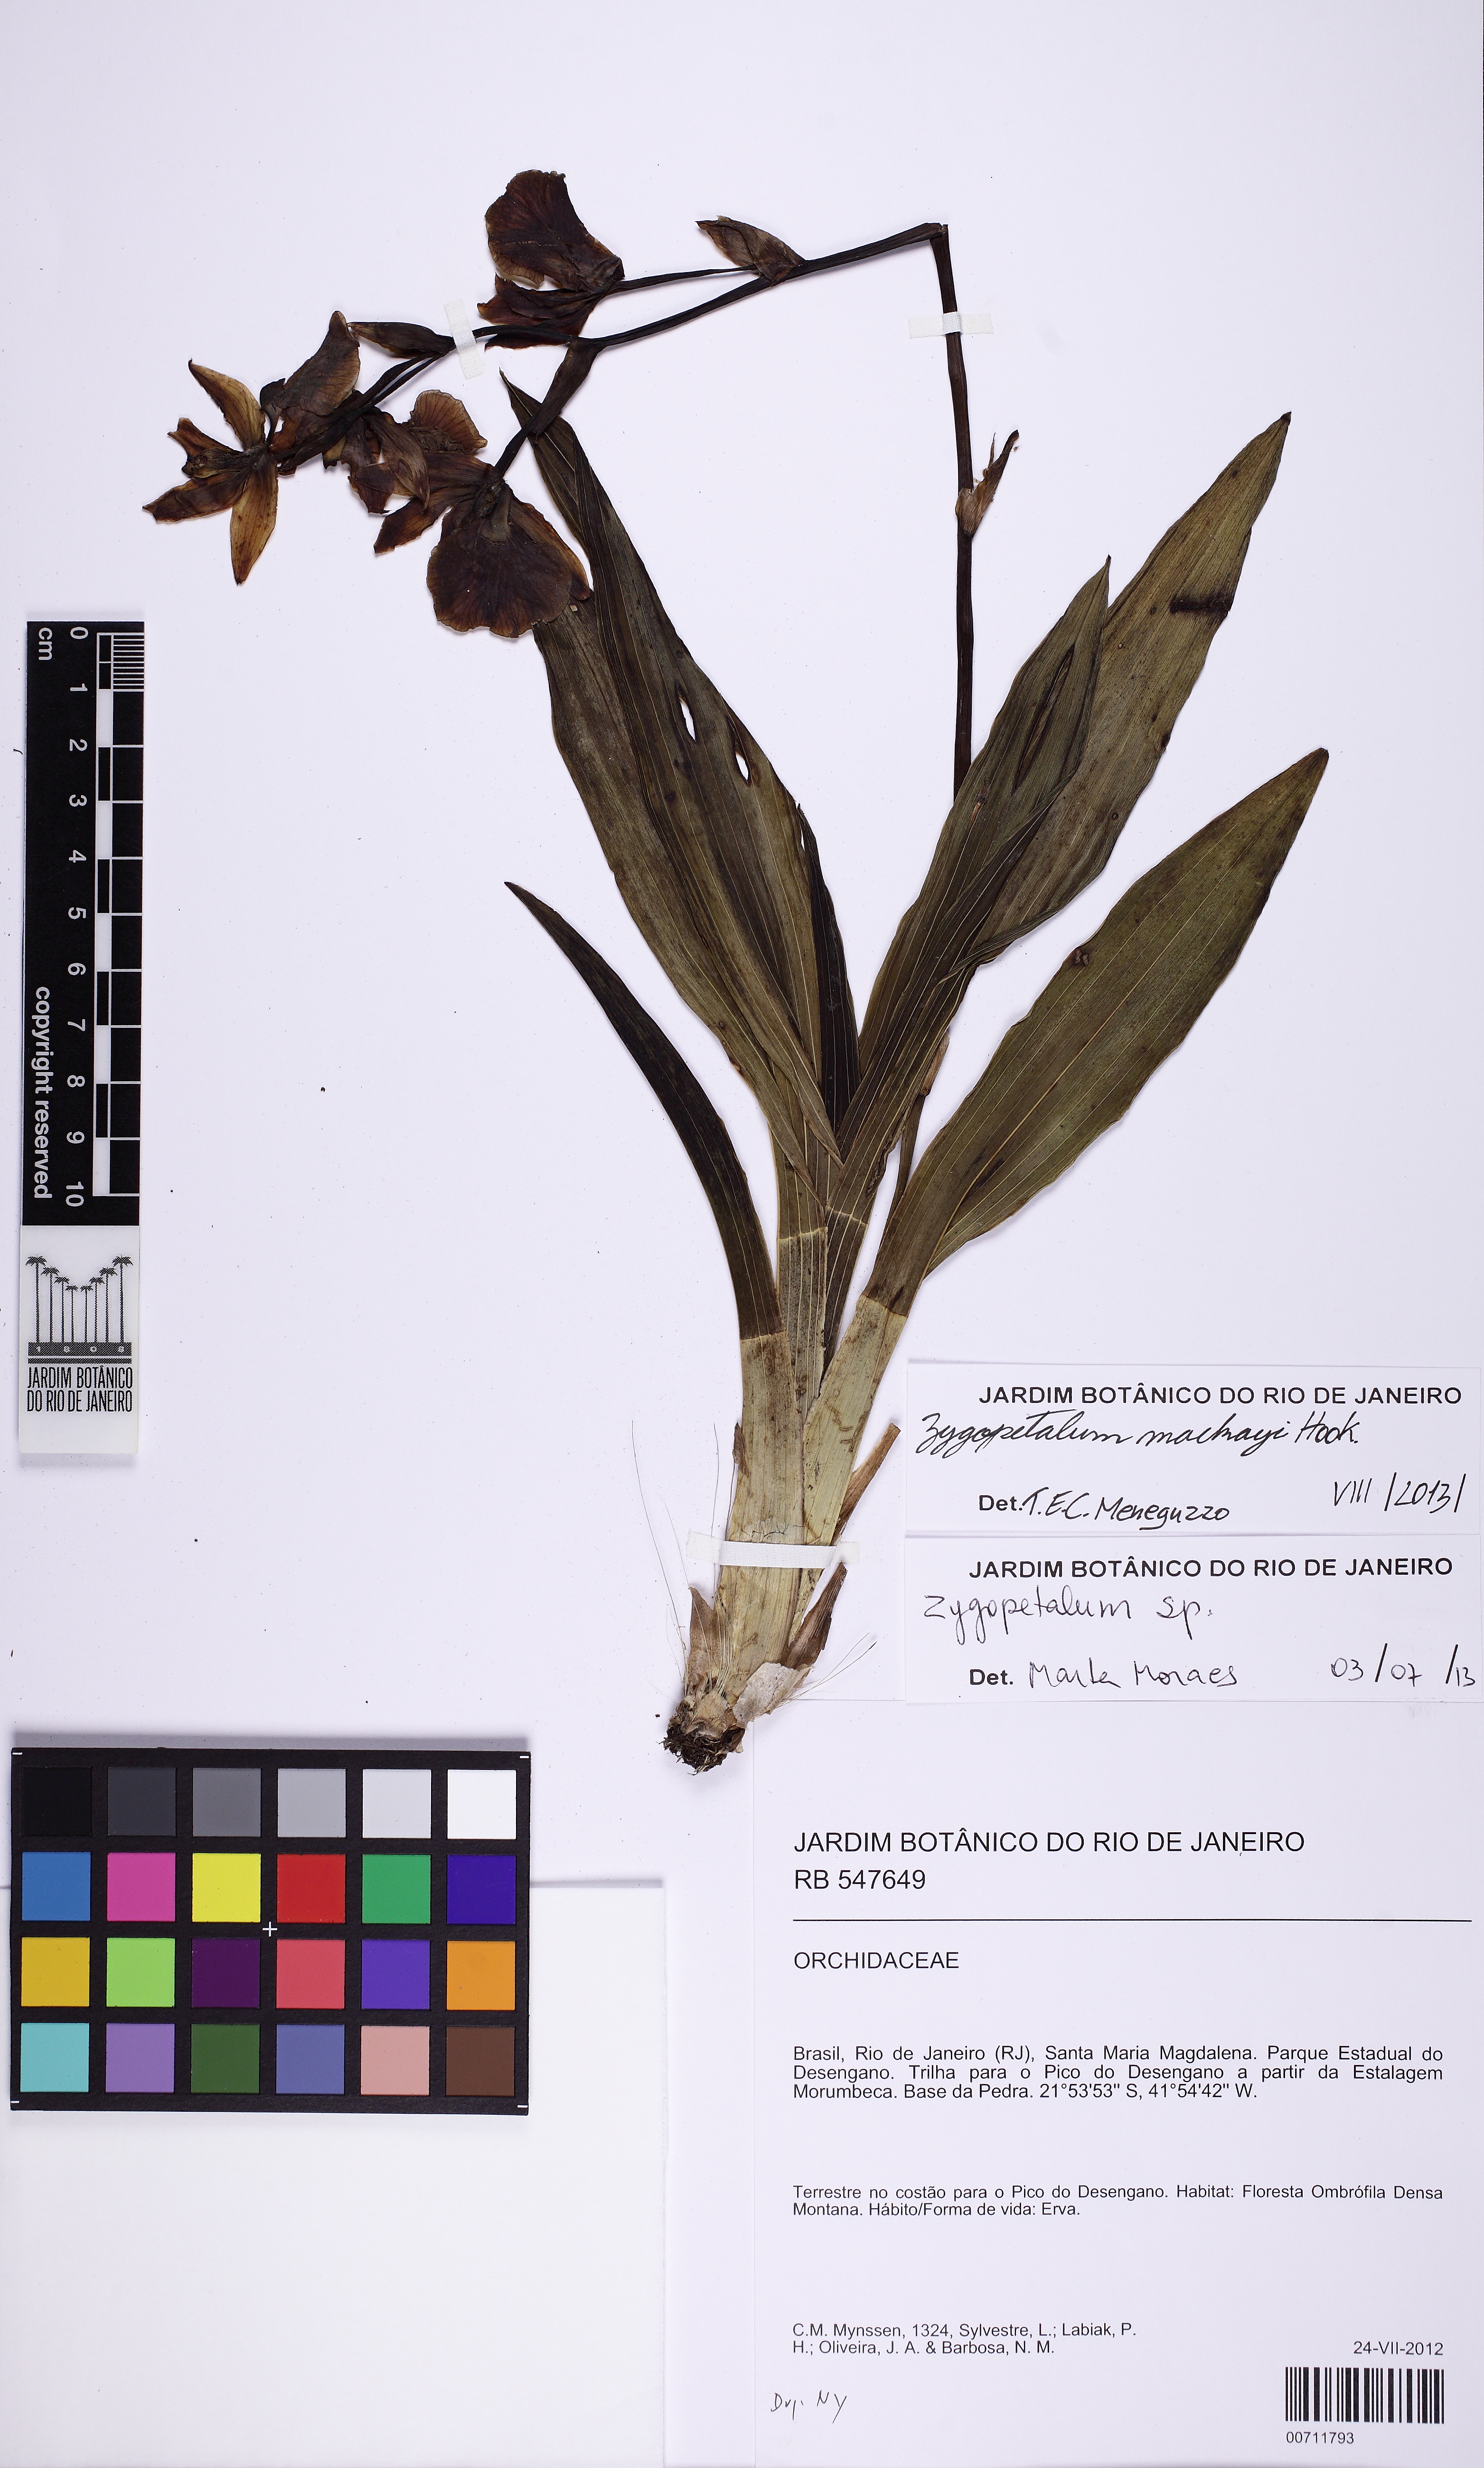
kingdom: Plantae
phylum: Tracheophyta
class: Liliopsida
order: Asparagales
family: Orchidaceae
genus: Zygopetalum
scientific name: Zygopetalum maculatum
